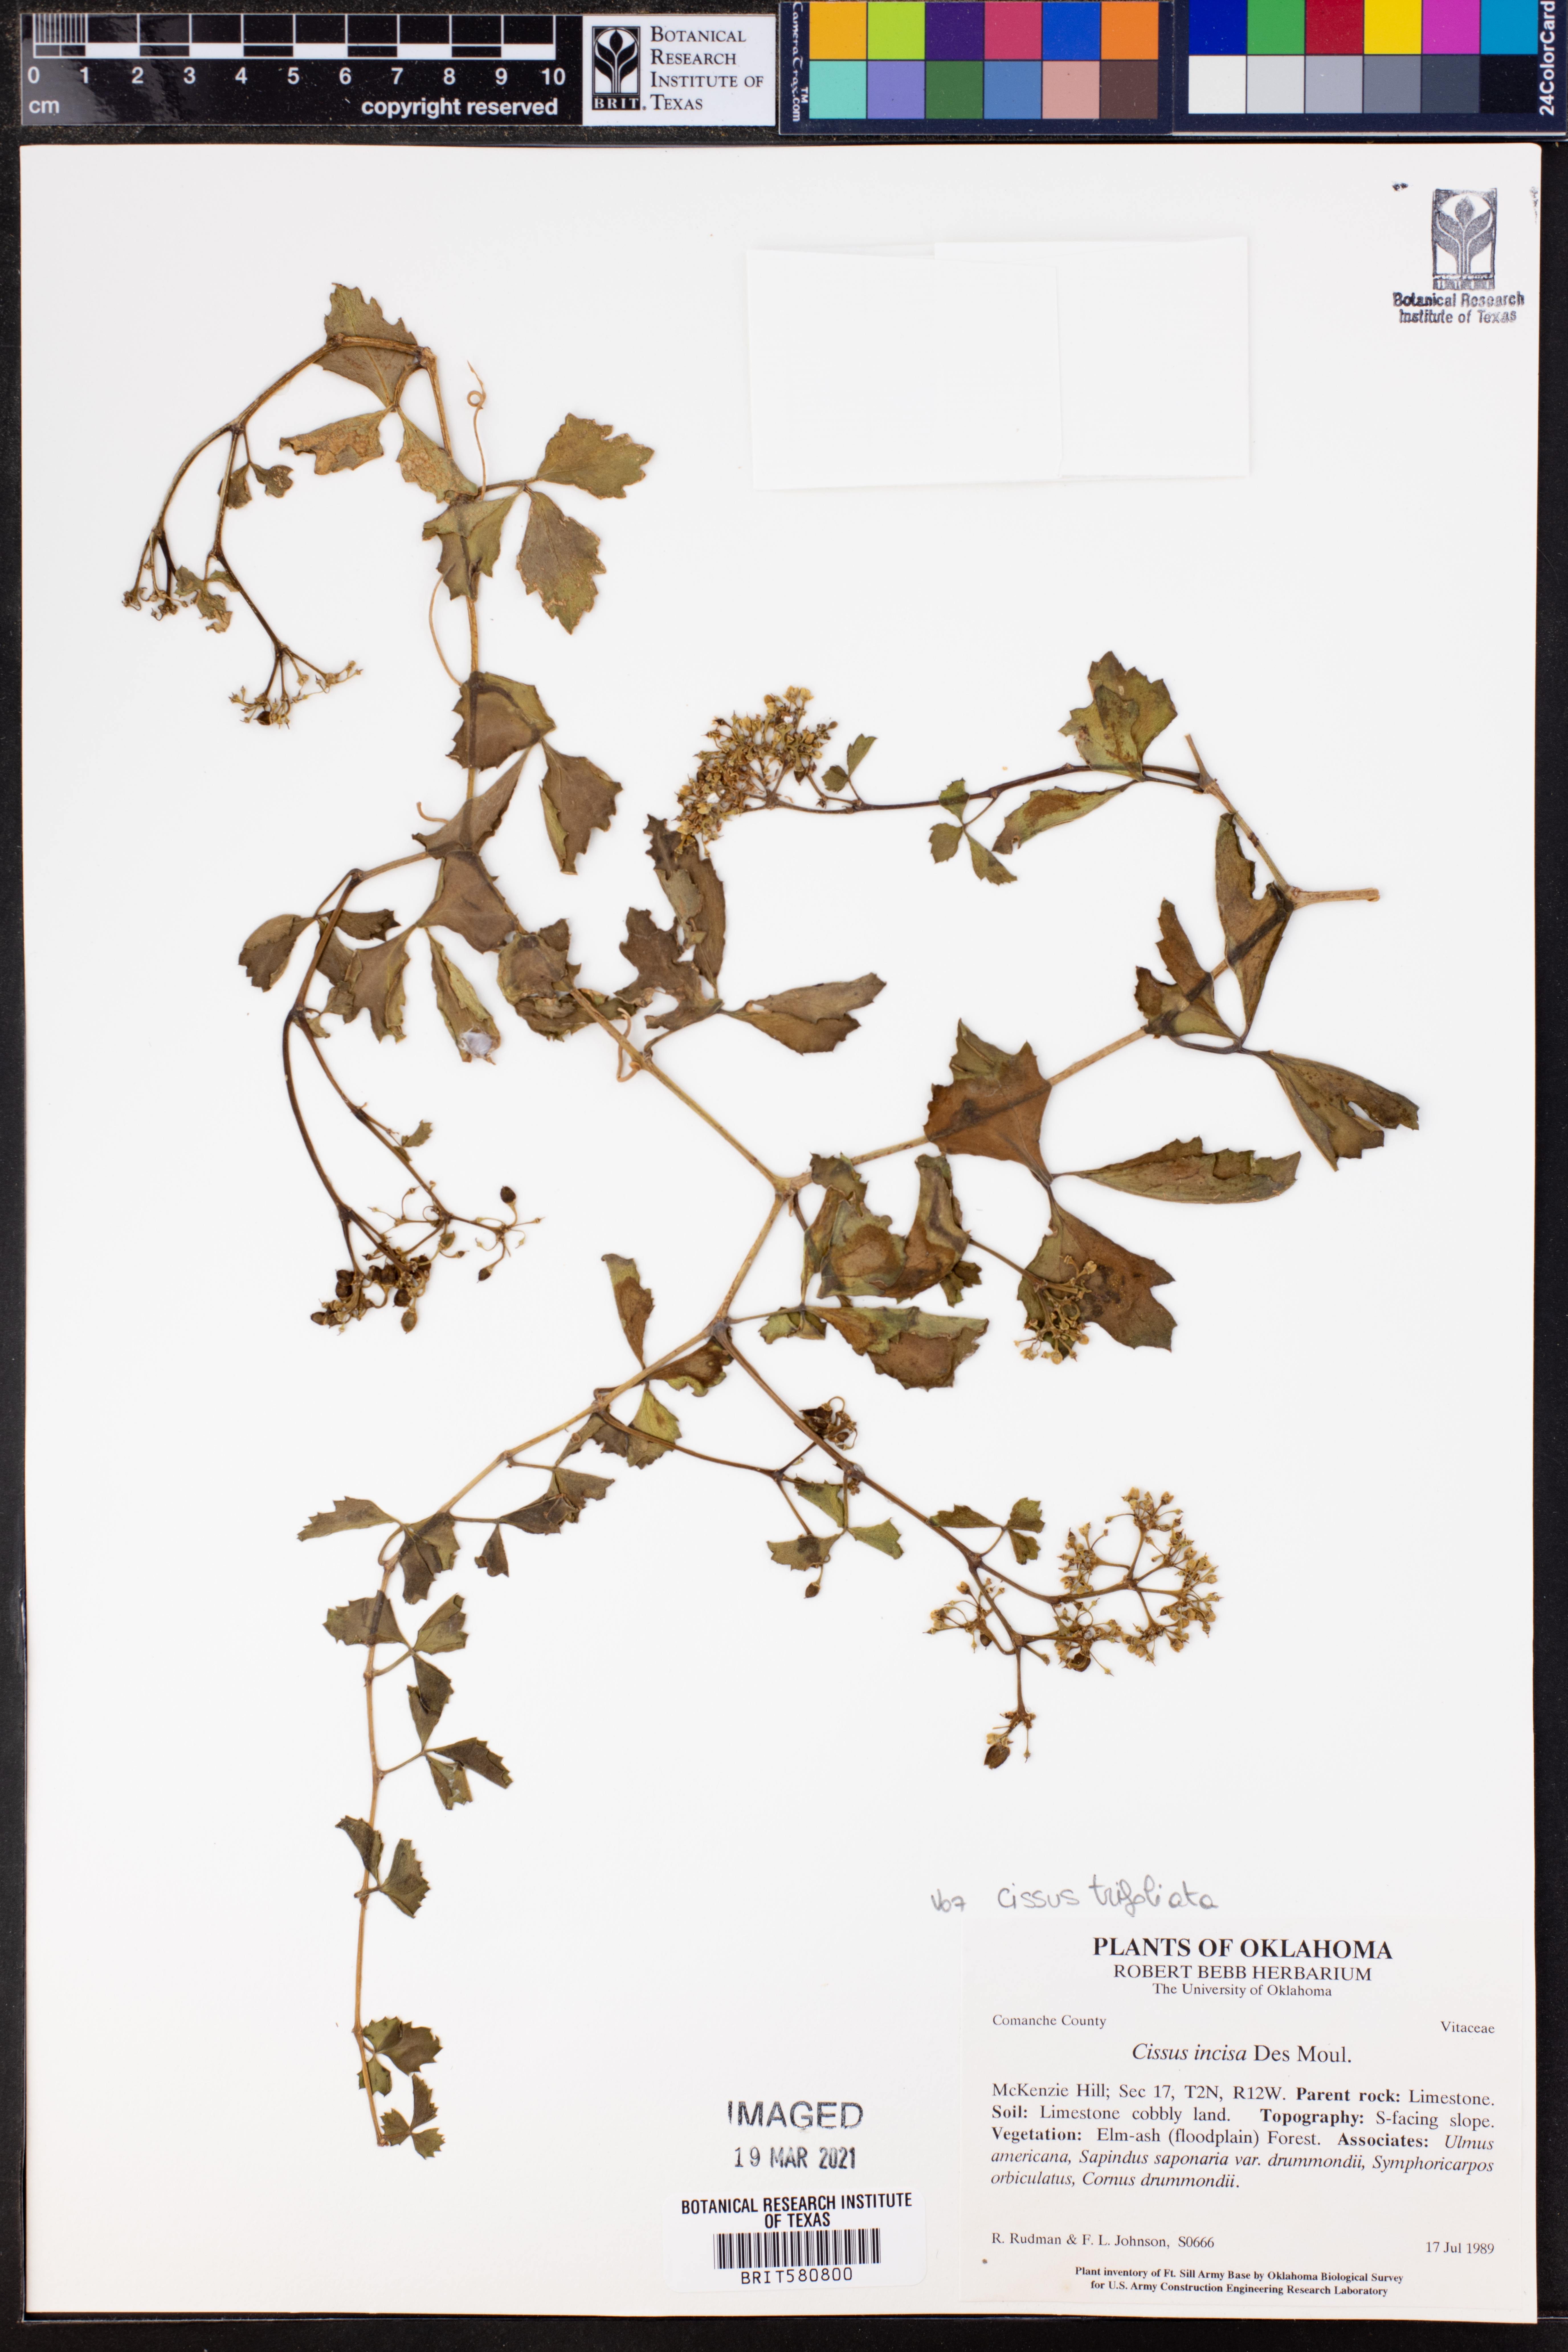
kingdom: Plantae
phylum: Tracheophyta
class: Magnoliopsida
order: Vitales
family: Vitaceae
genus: Cissus
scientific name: Cissus trifoliata
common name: Vine-sorrel
